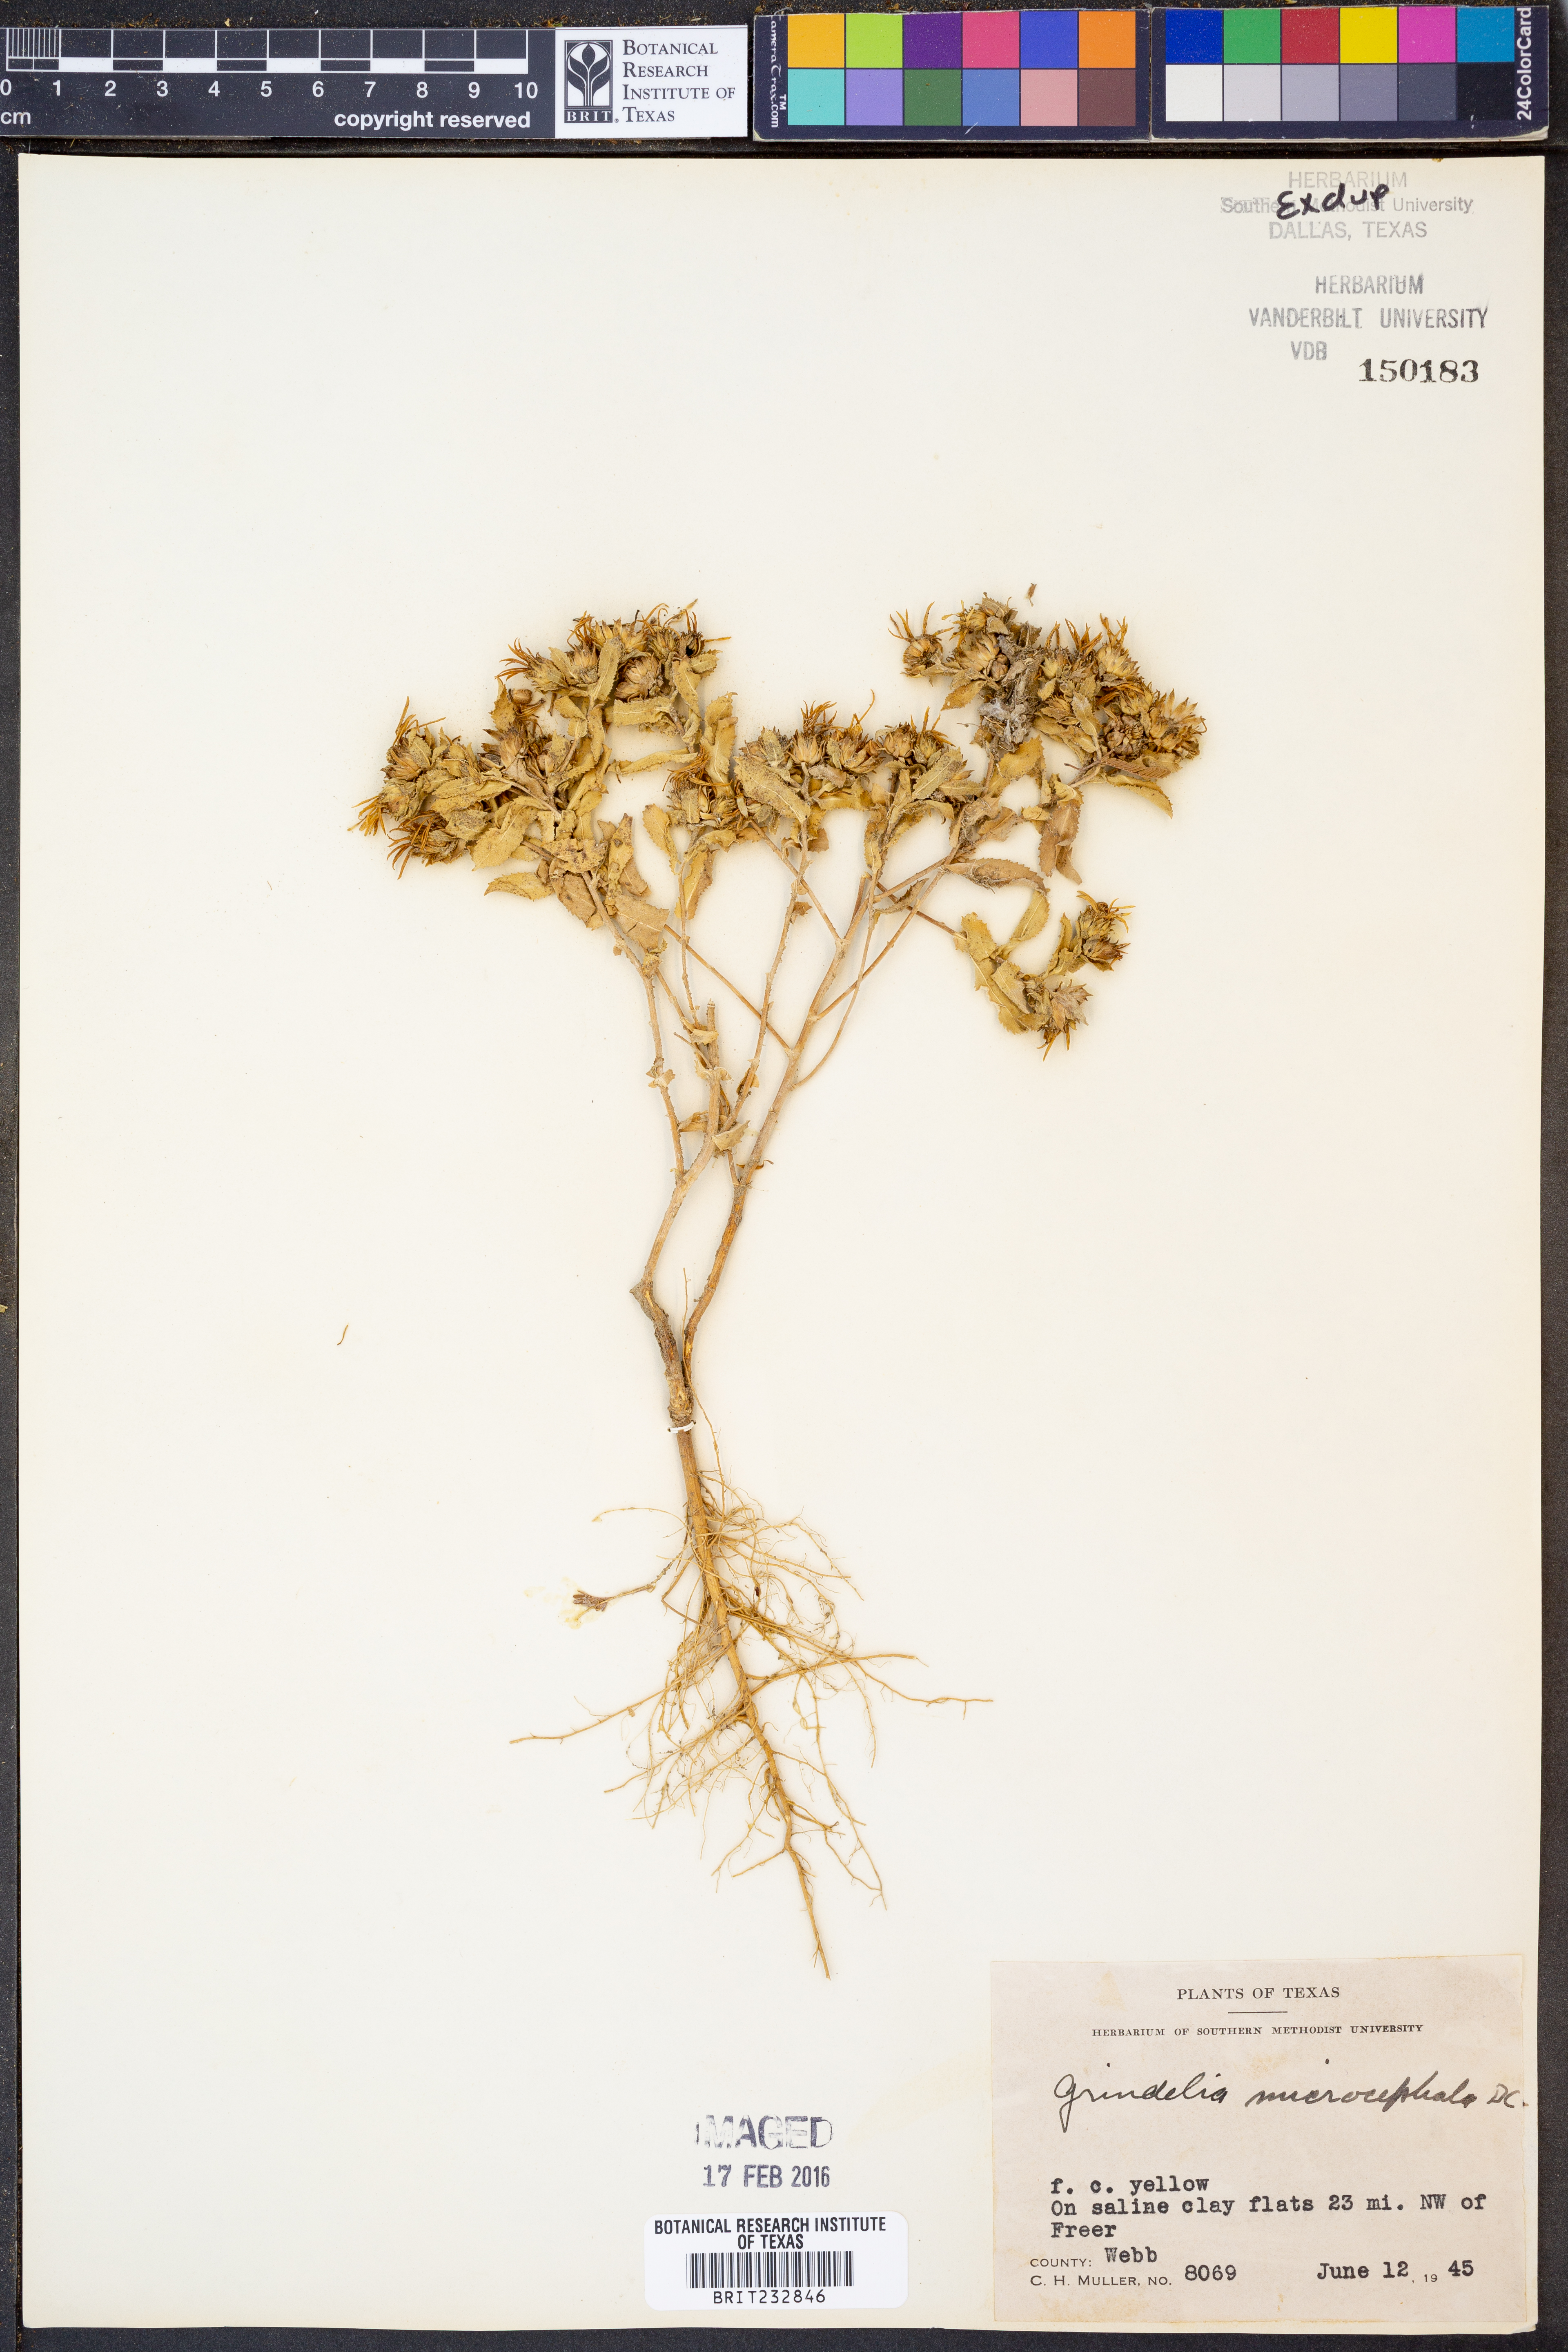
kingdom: Plantae
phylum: Tracheophyta
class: Magnoliopsida
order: Asterales
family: Asteraceae
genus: Grindelia
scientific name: Grindelia arizonica
